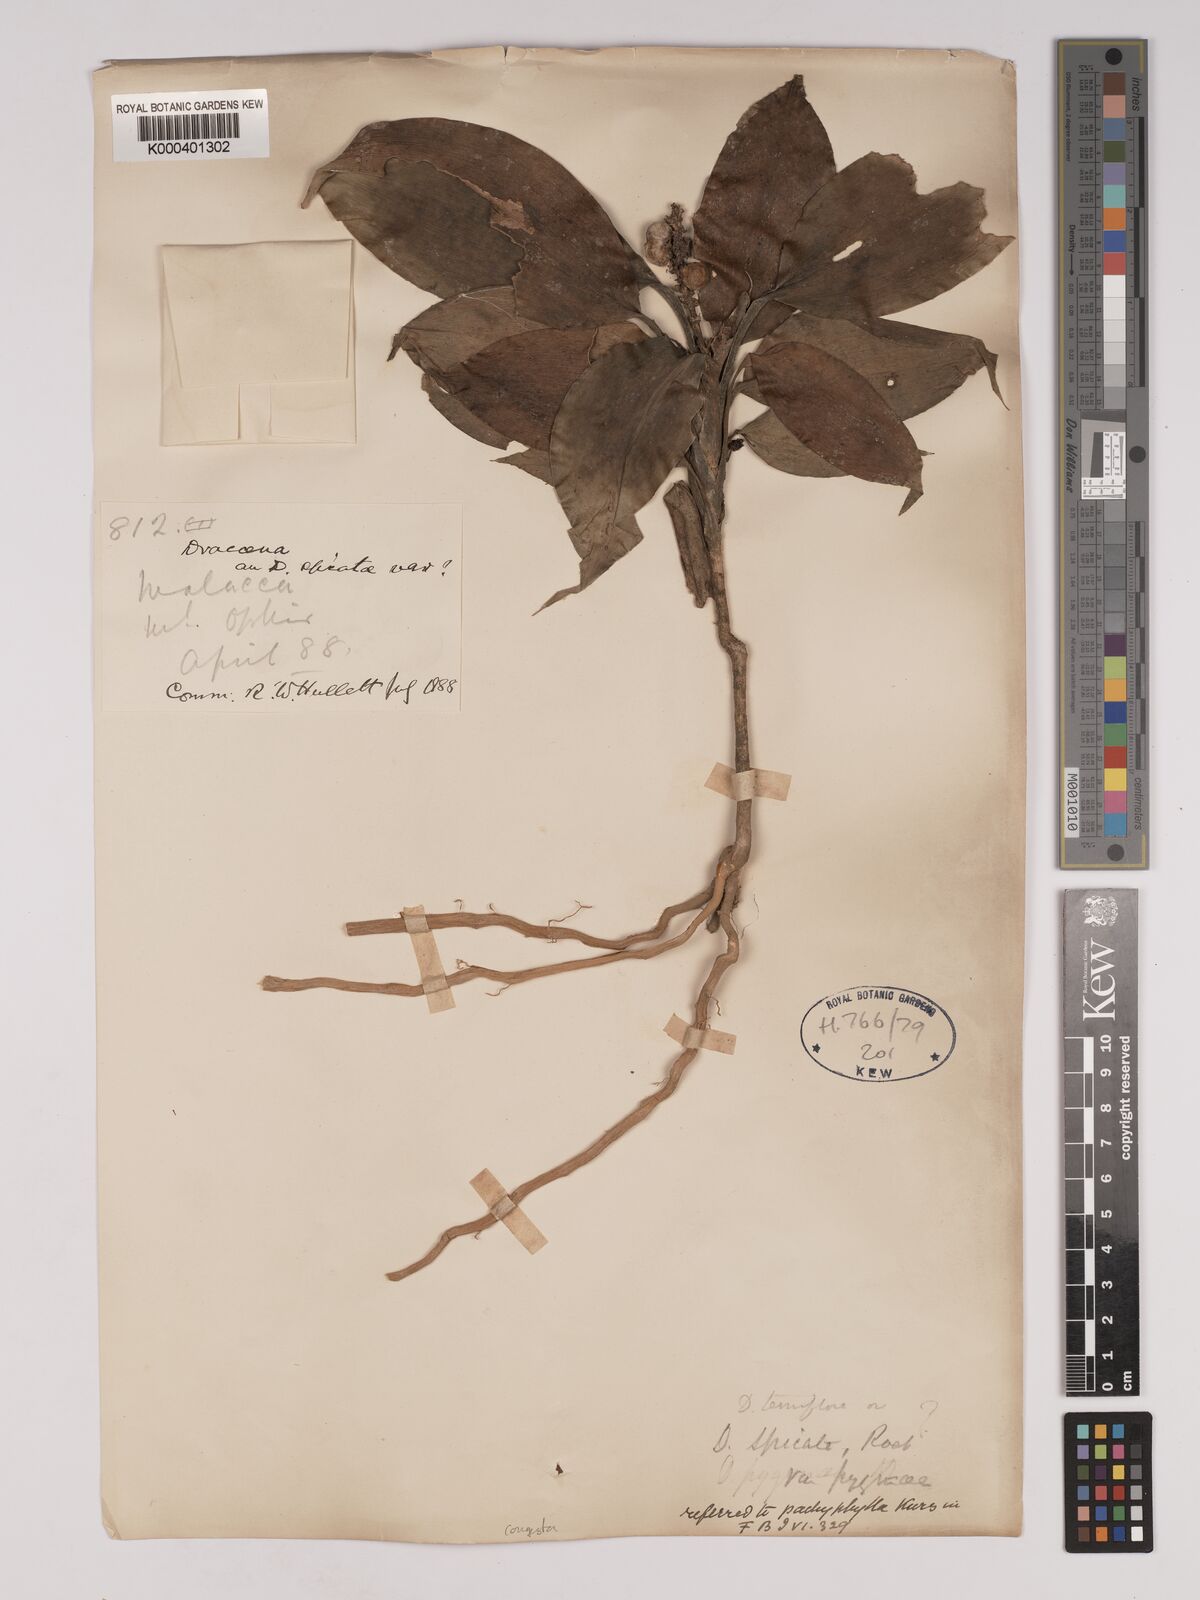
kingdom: Plantae
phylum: Tracheophyta
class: Liliopsida
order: Asparagales
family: Asparagaceae
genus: Dracaena
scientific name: Dracaena chiniana
